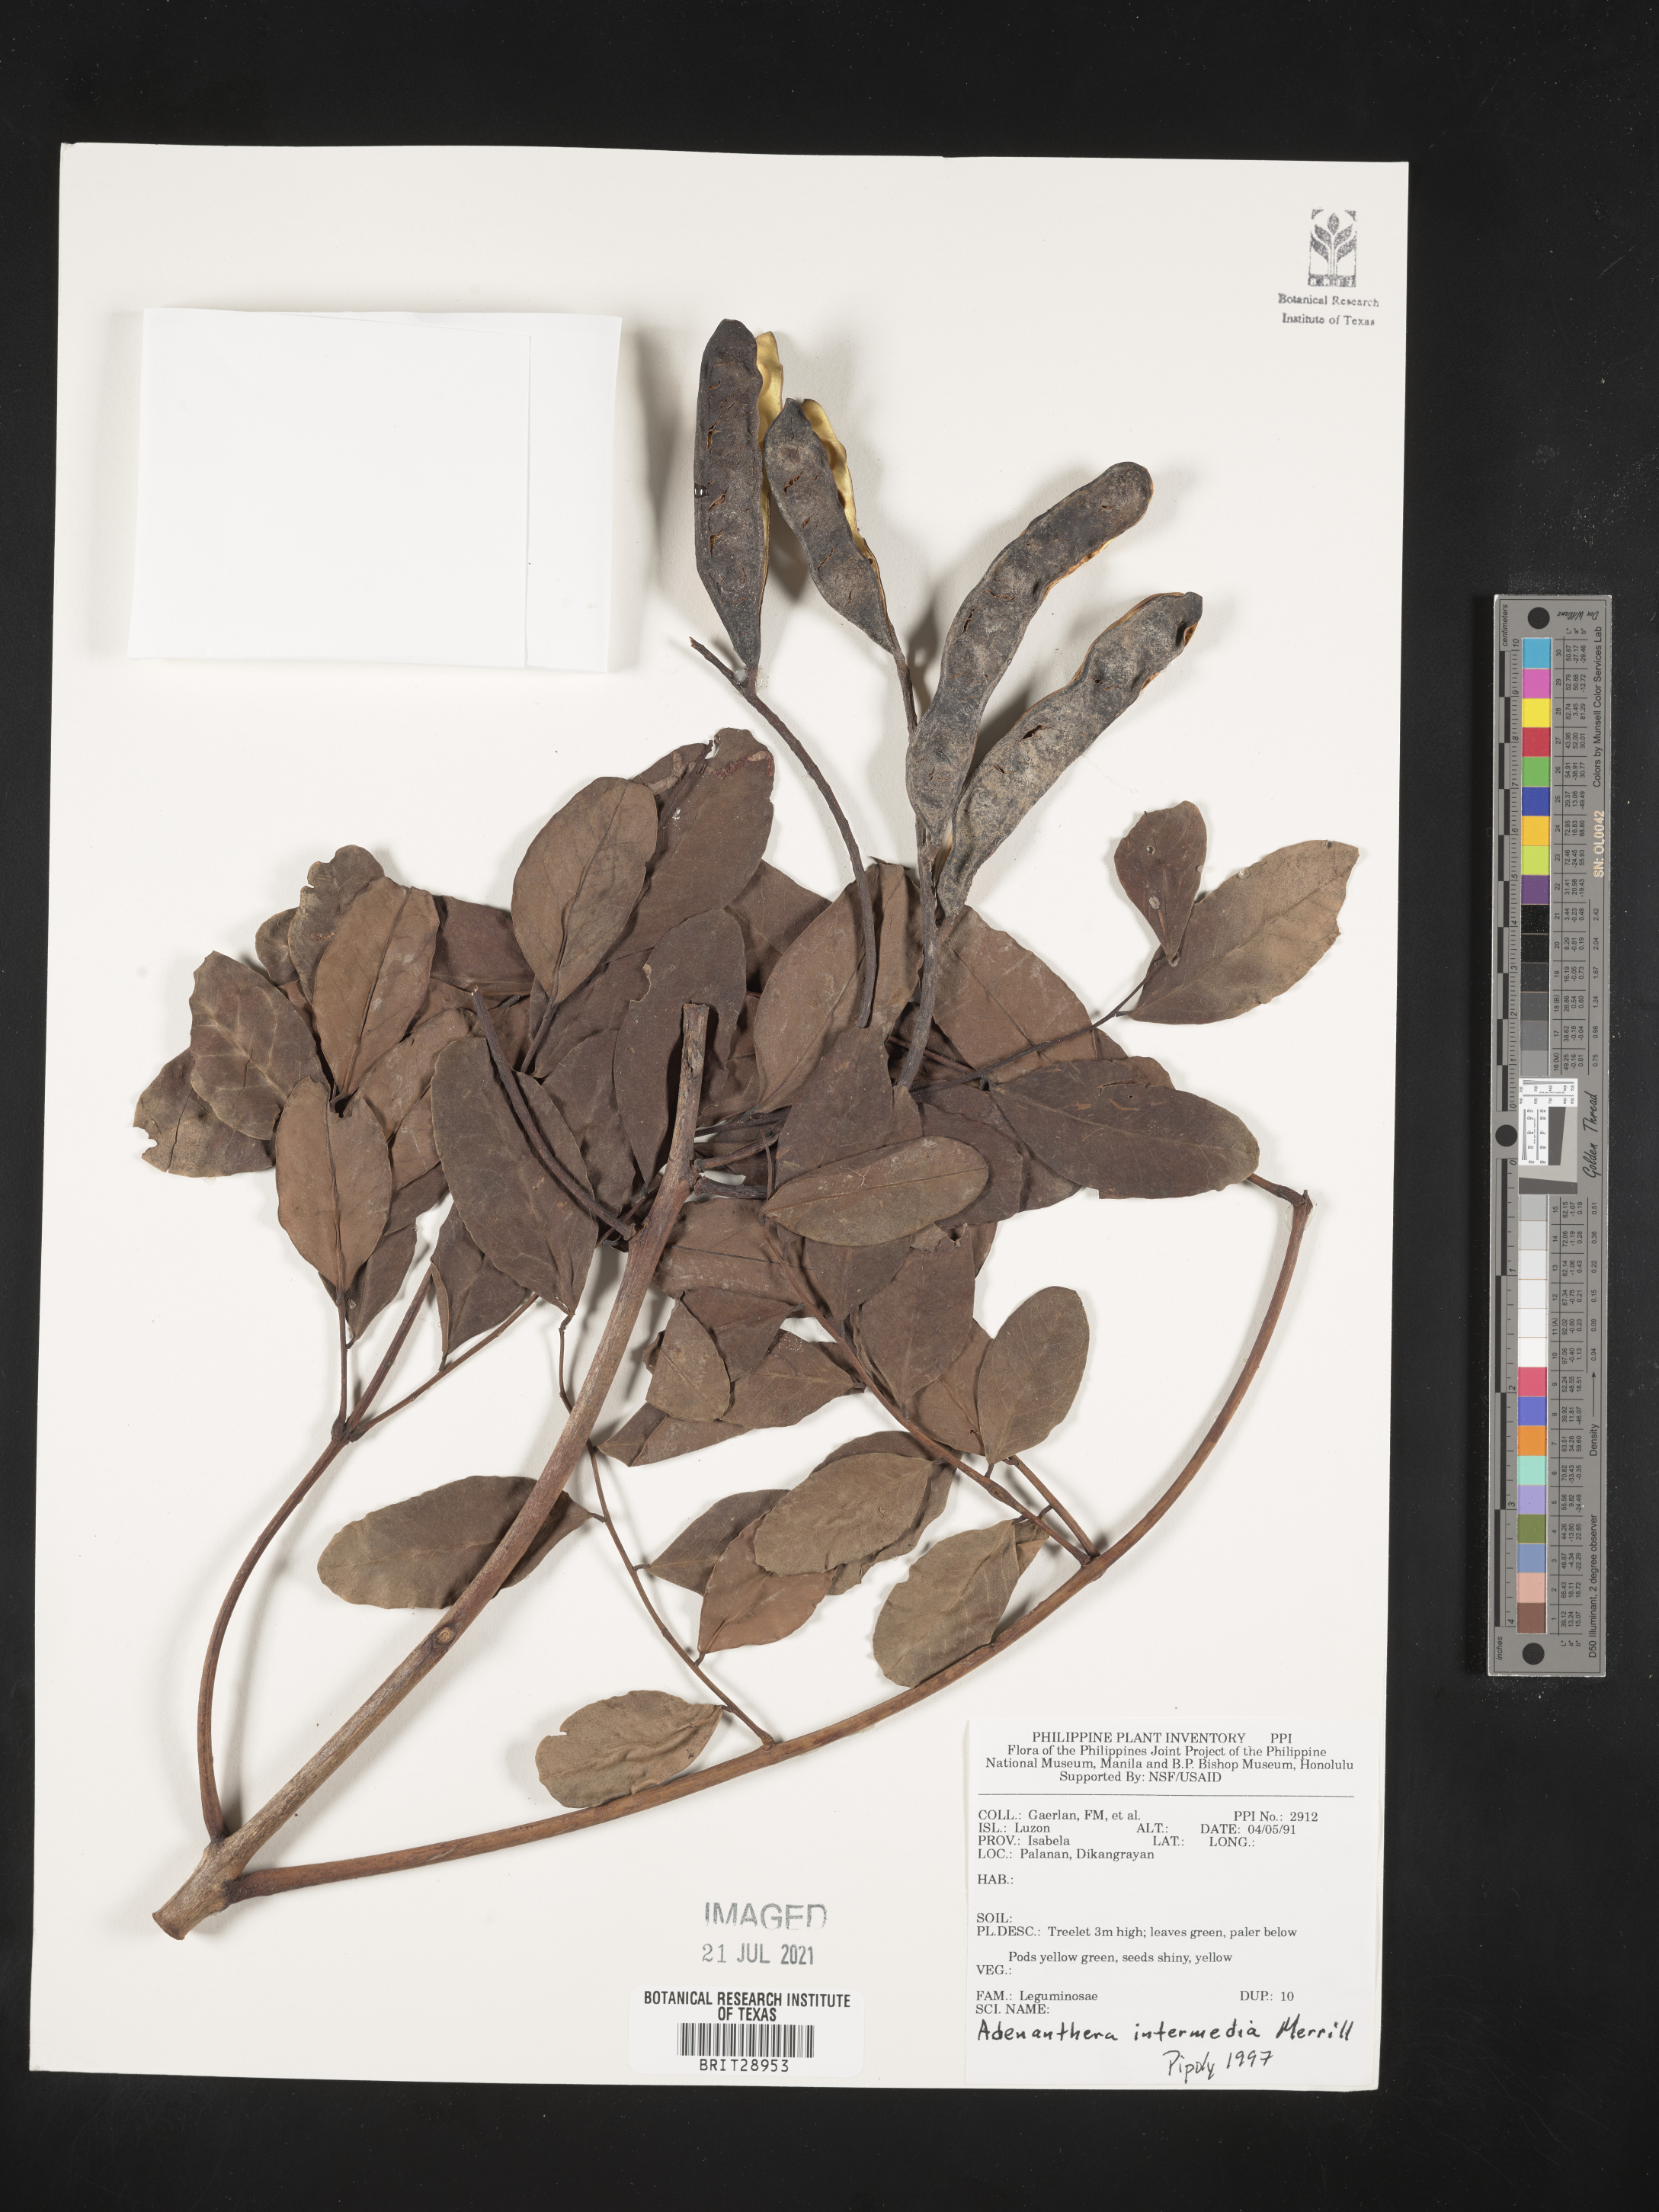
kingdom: Plantae
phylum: Tracheophyta
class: Magnoliopsida
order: Fabales
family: Fabaceae
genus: Adenanthera
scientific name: Adenanthera intermedia
